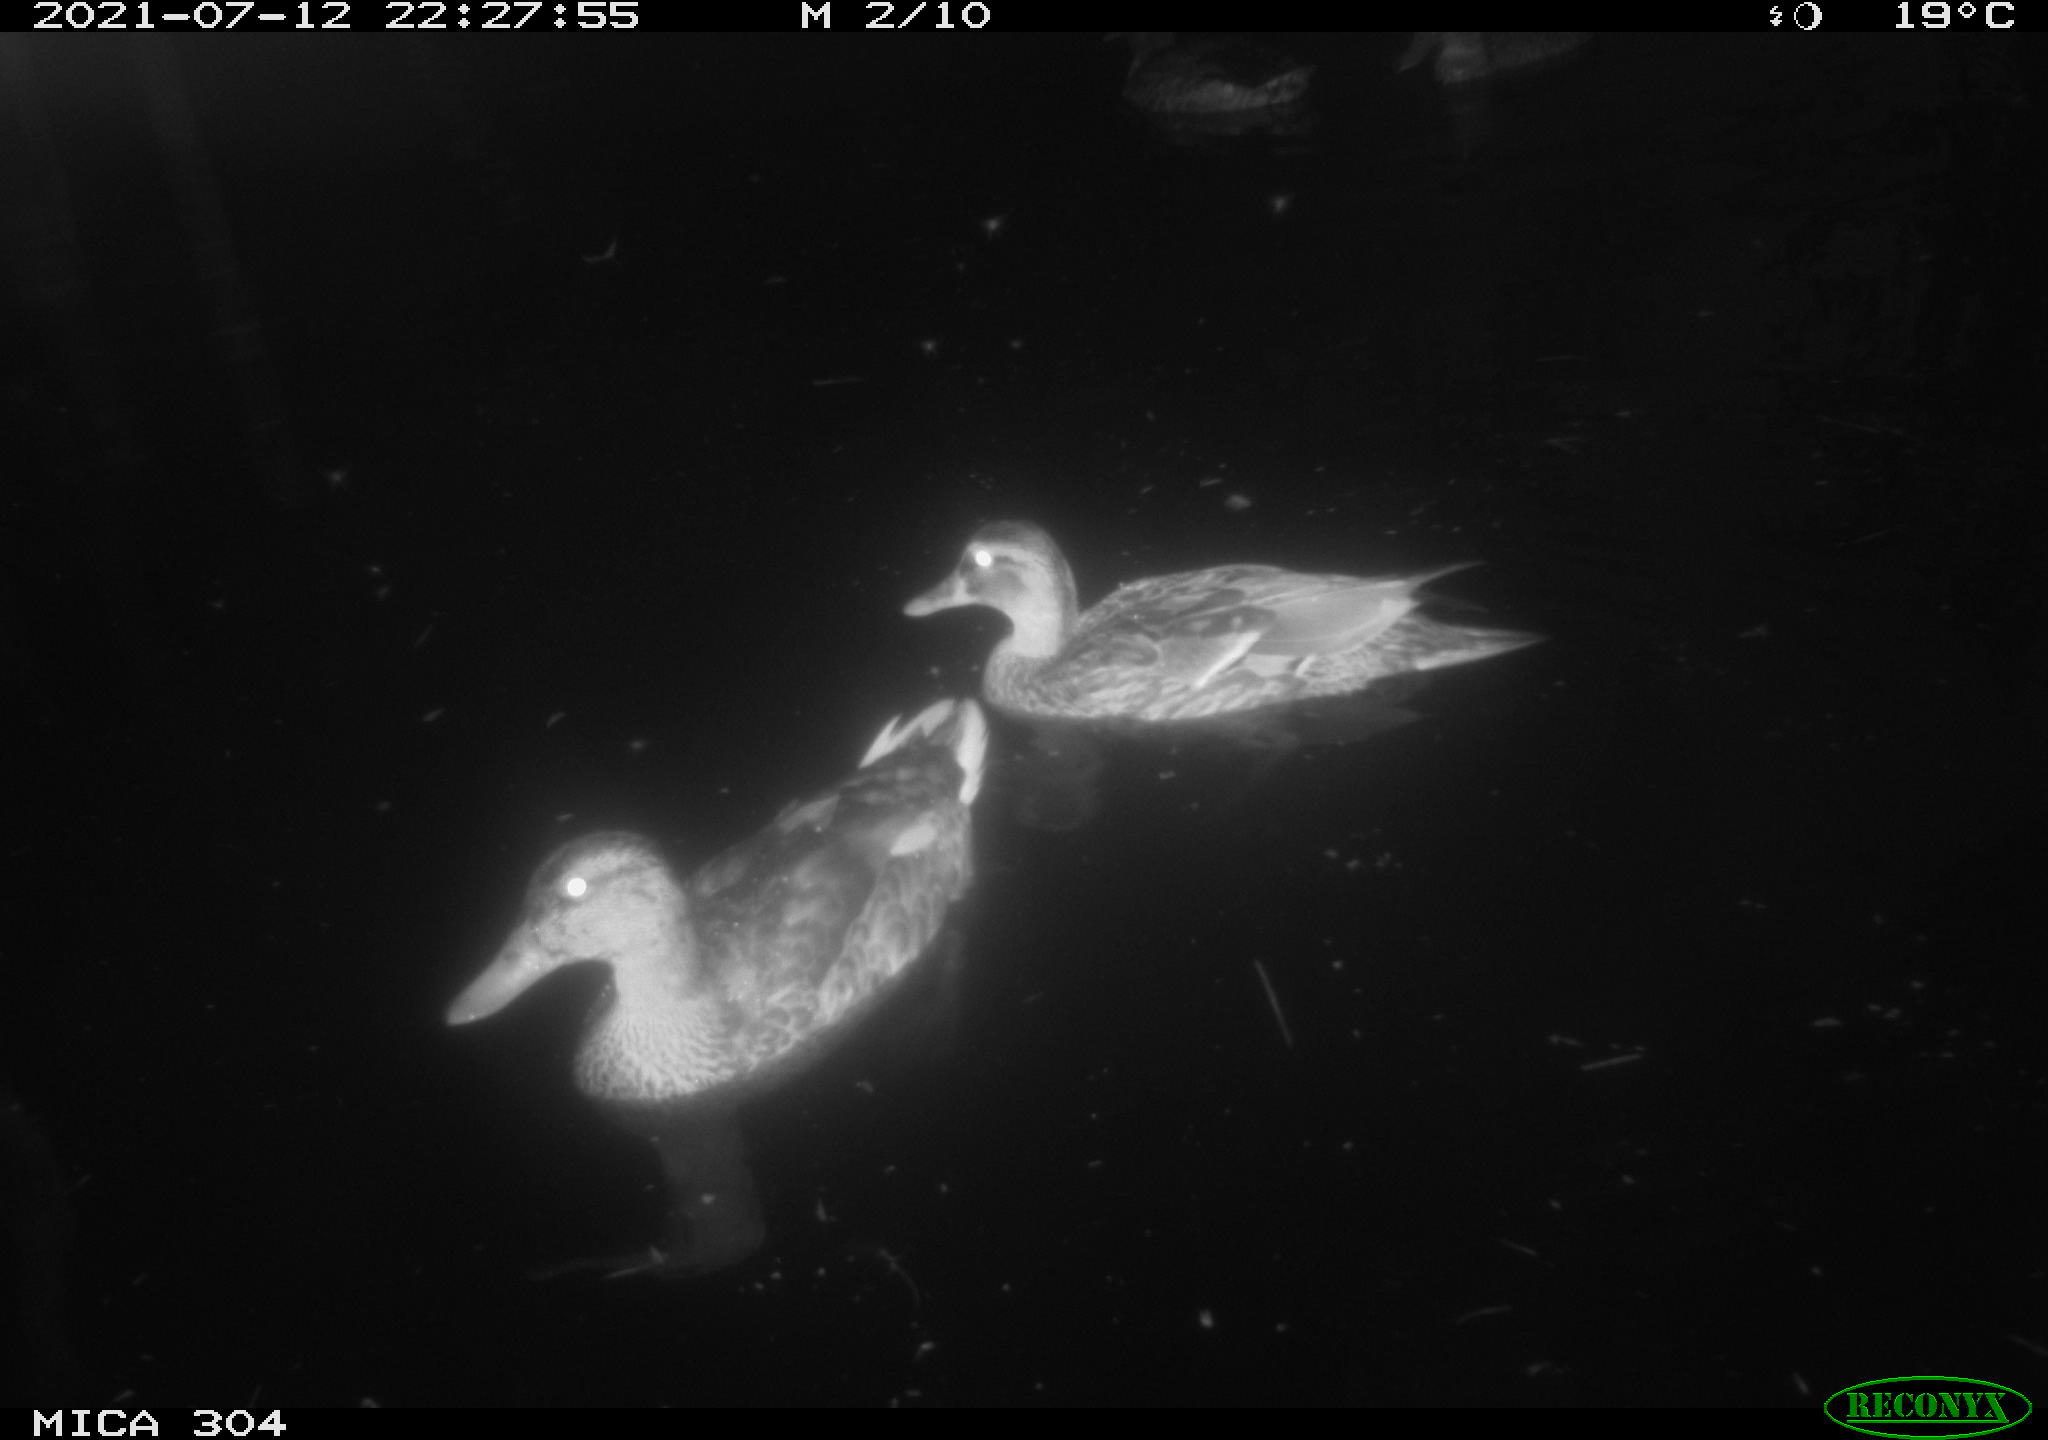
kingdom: Animalia
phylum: Chordata
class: Aves
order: Anseriformes
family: Anatidae
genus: Anas
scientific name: Anas platyrhynchos
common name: Mallard
